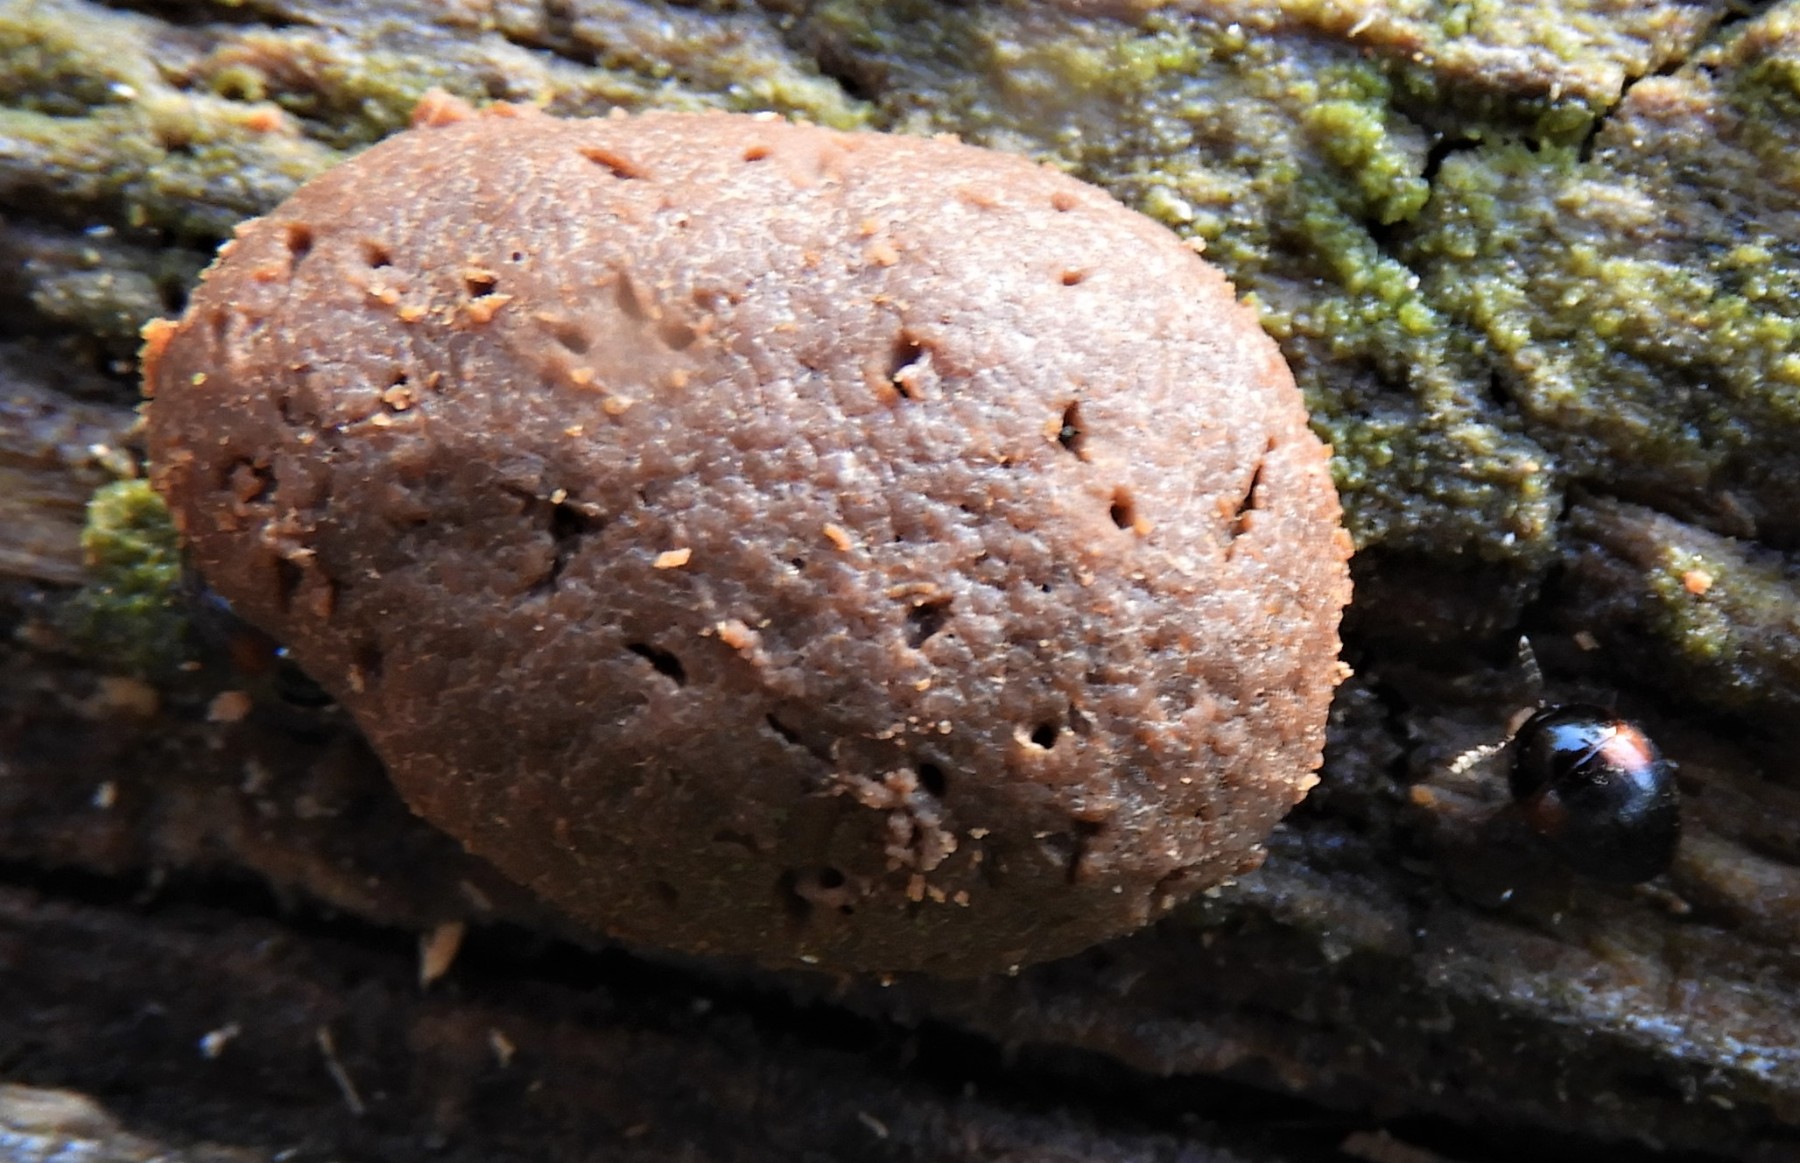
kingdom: Protozoa
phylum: Mycetozoa
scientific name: Mycetozoa
